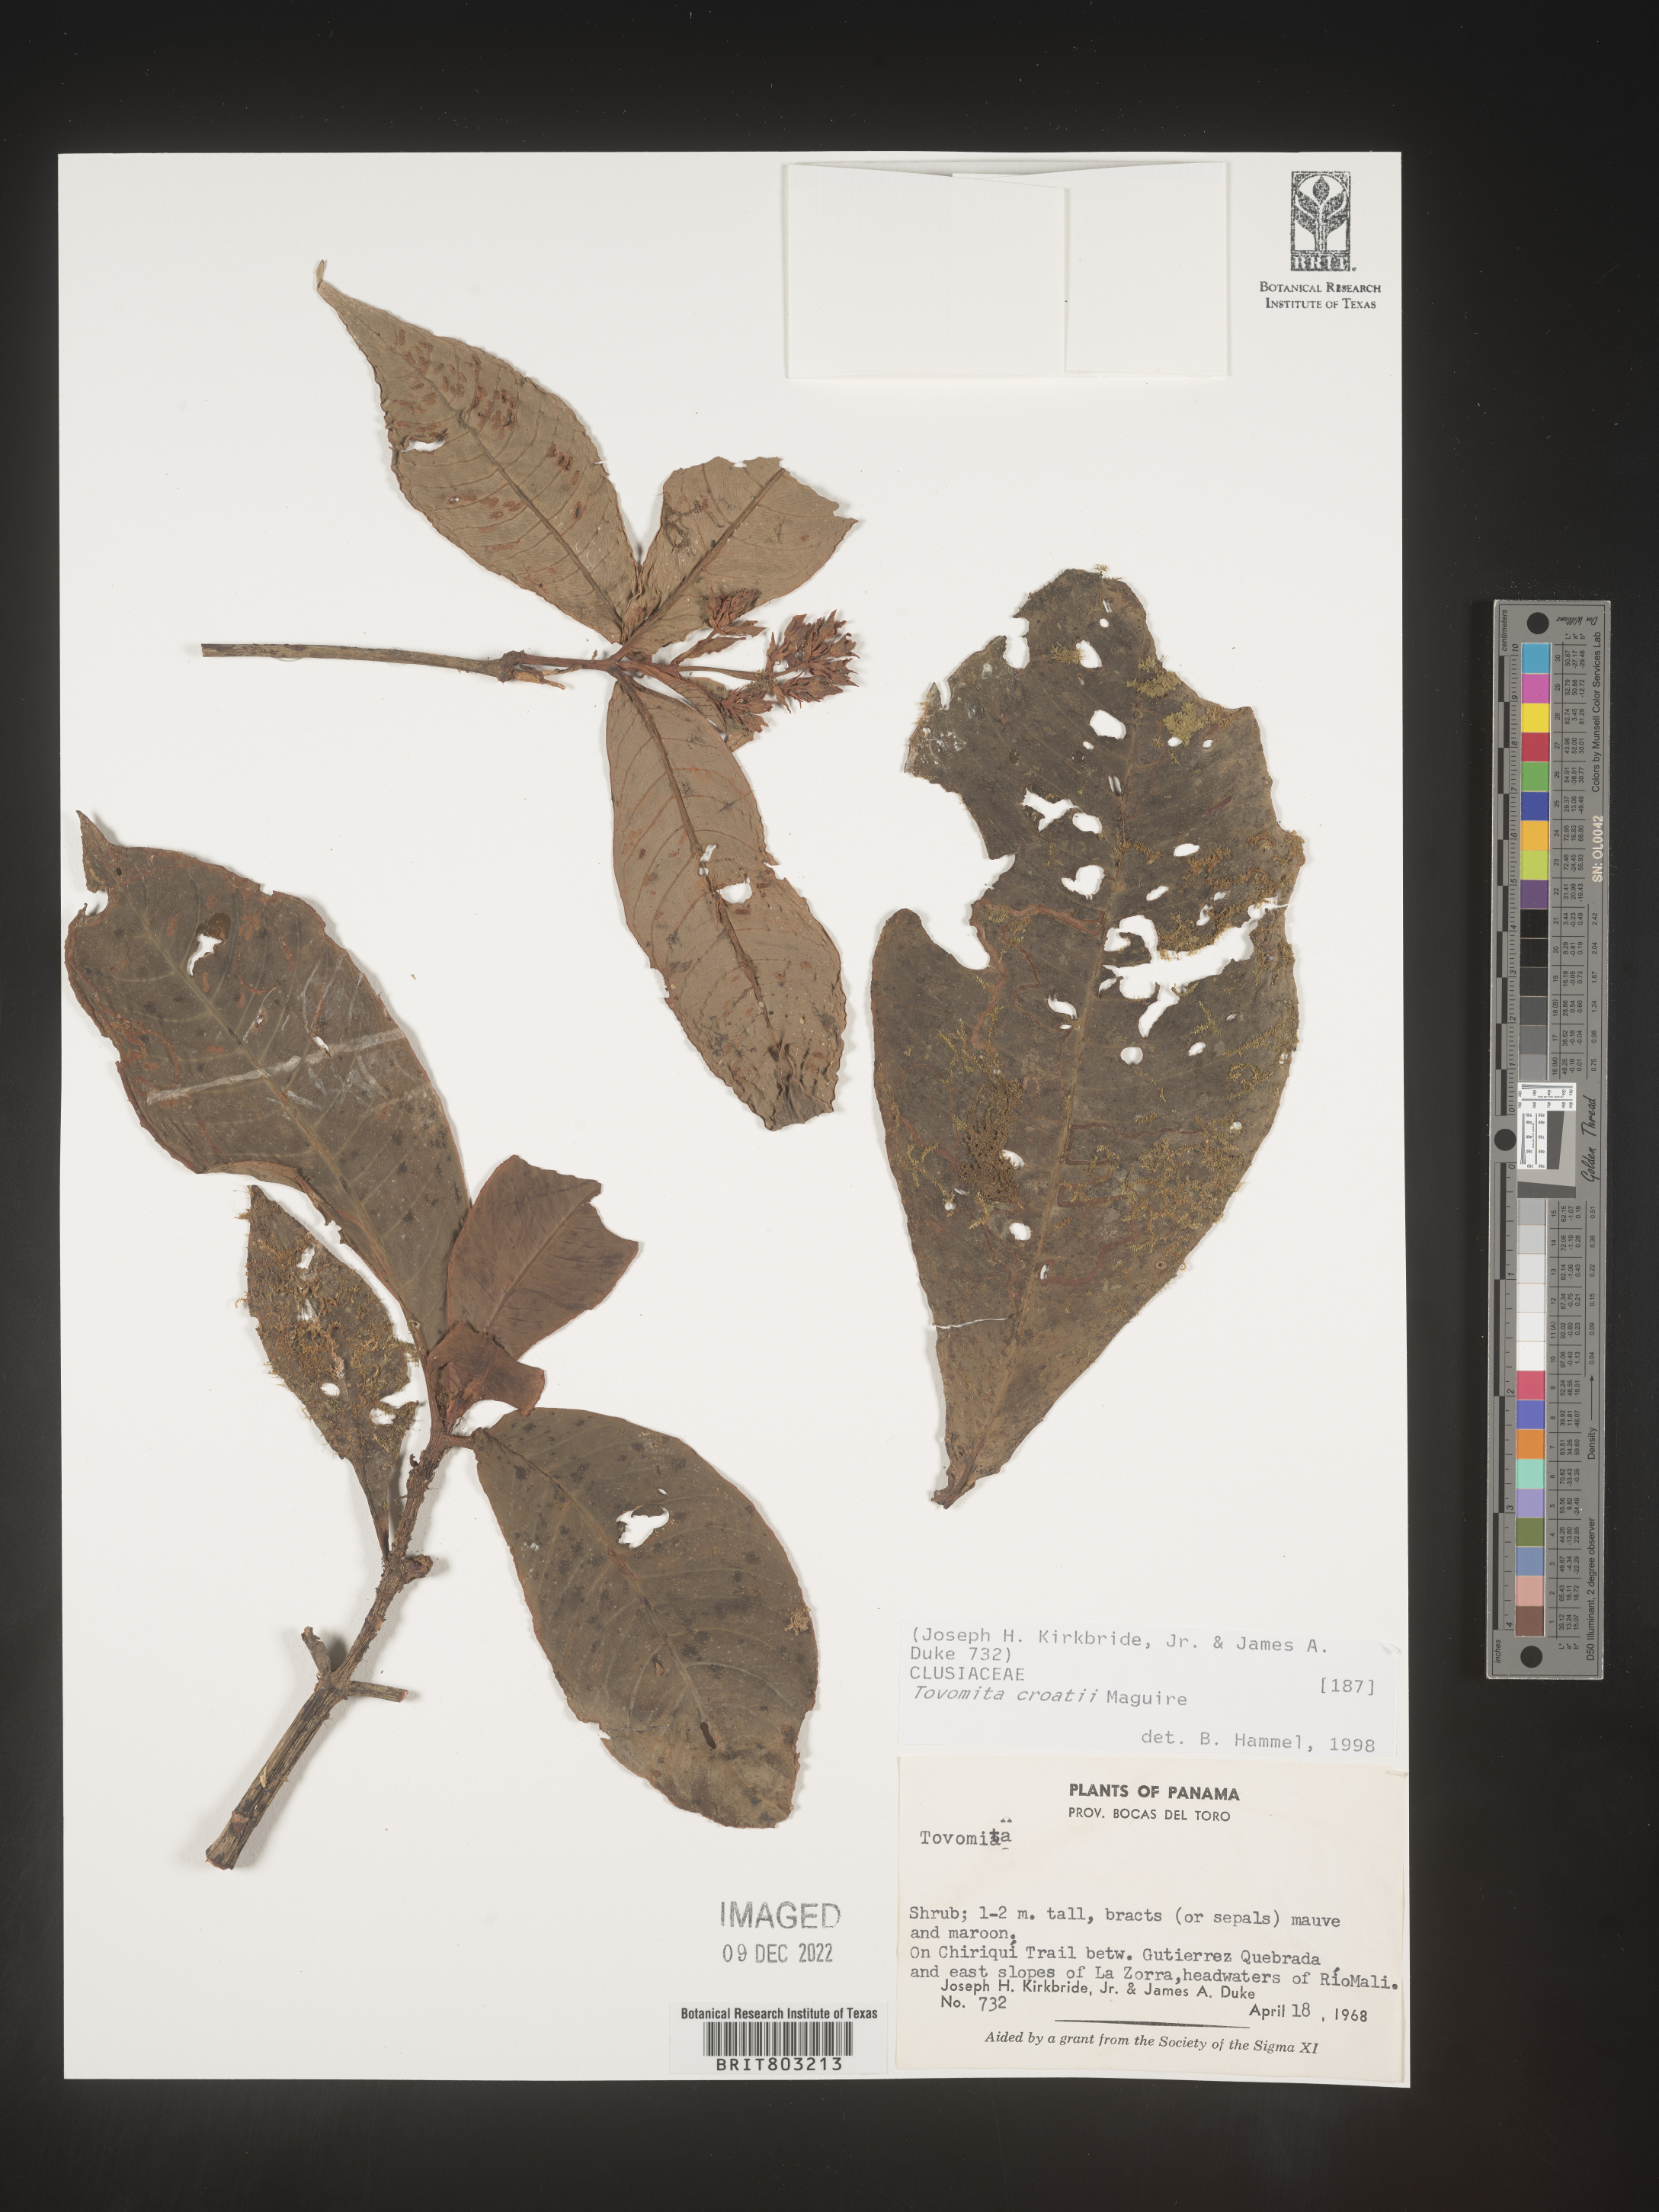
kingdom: Plantae
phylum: Tracheophyta
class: Magnoliopsida
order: Malpighiales
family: Clusiaceae
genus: Tovomita
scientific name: Tovomita
